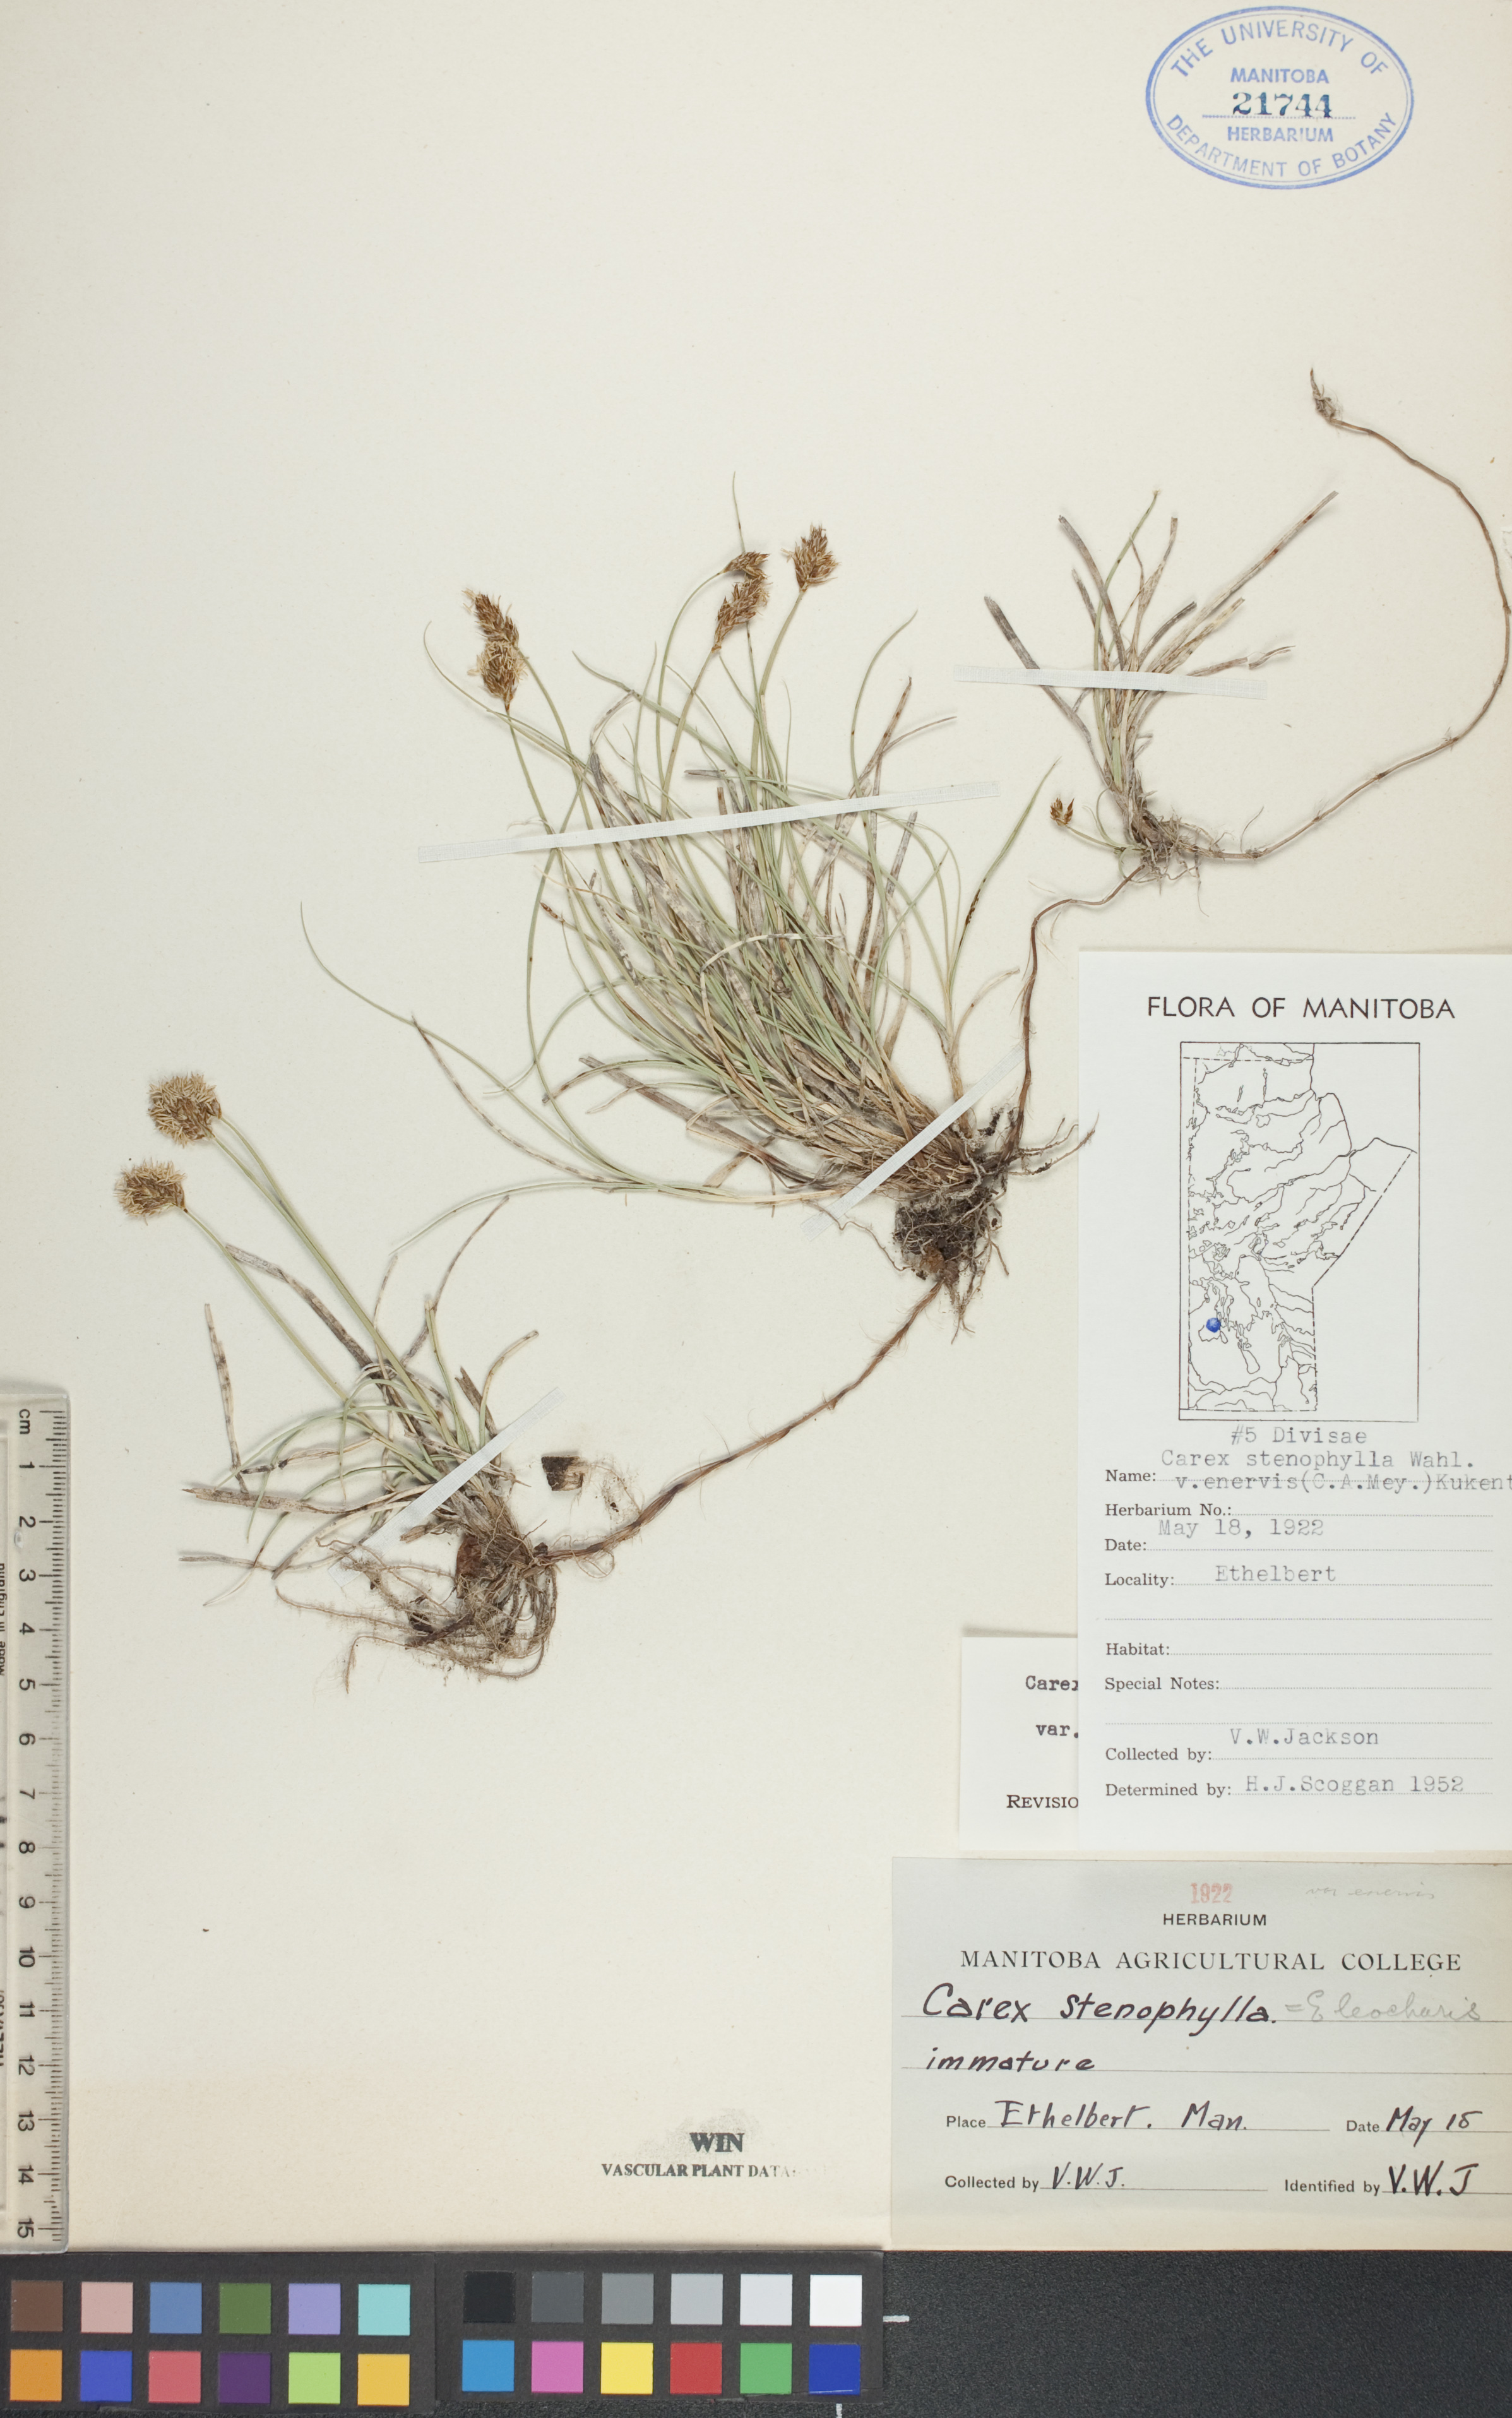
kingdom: Plantae
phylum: Tracheophyta
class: Liliopsida
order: Poales
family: Cyperaceae
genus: Carex
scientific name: Carex enervis
